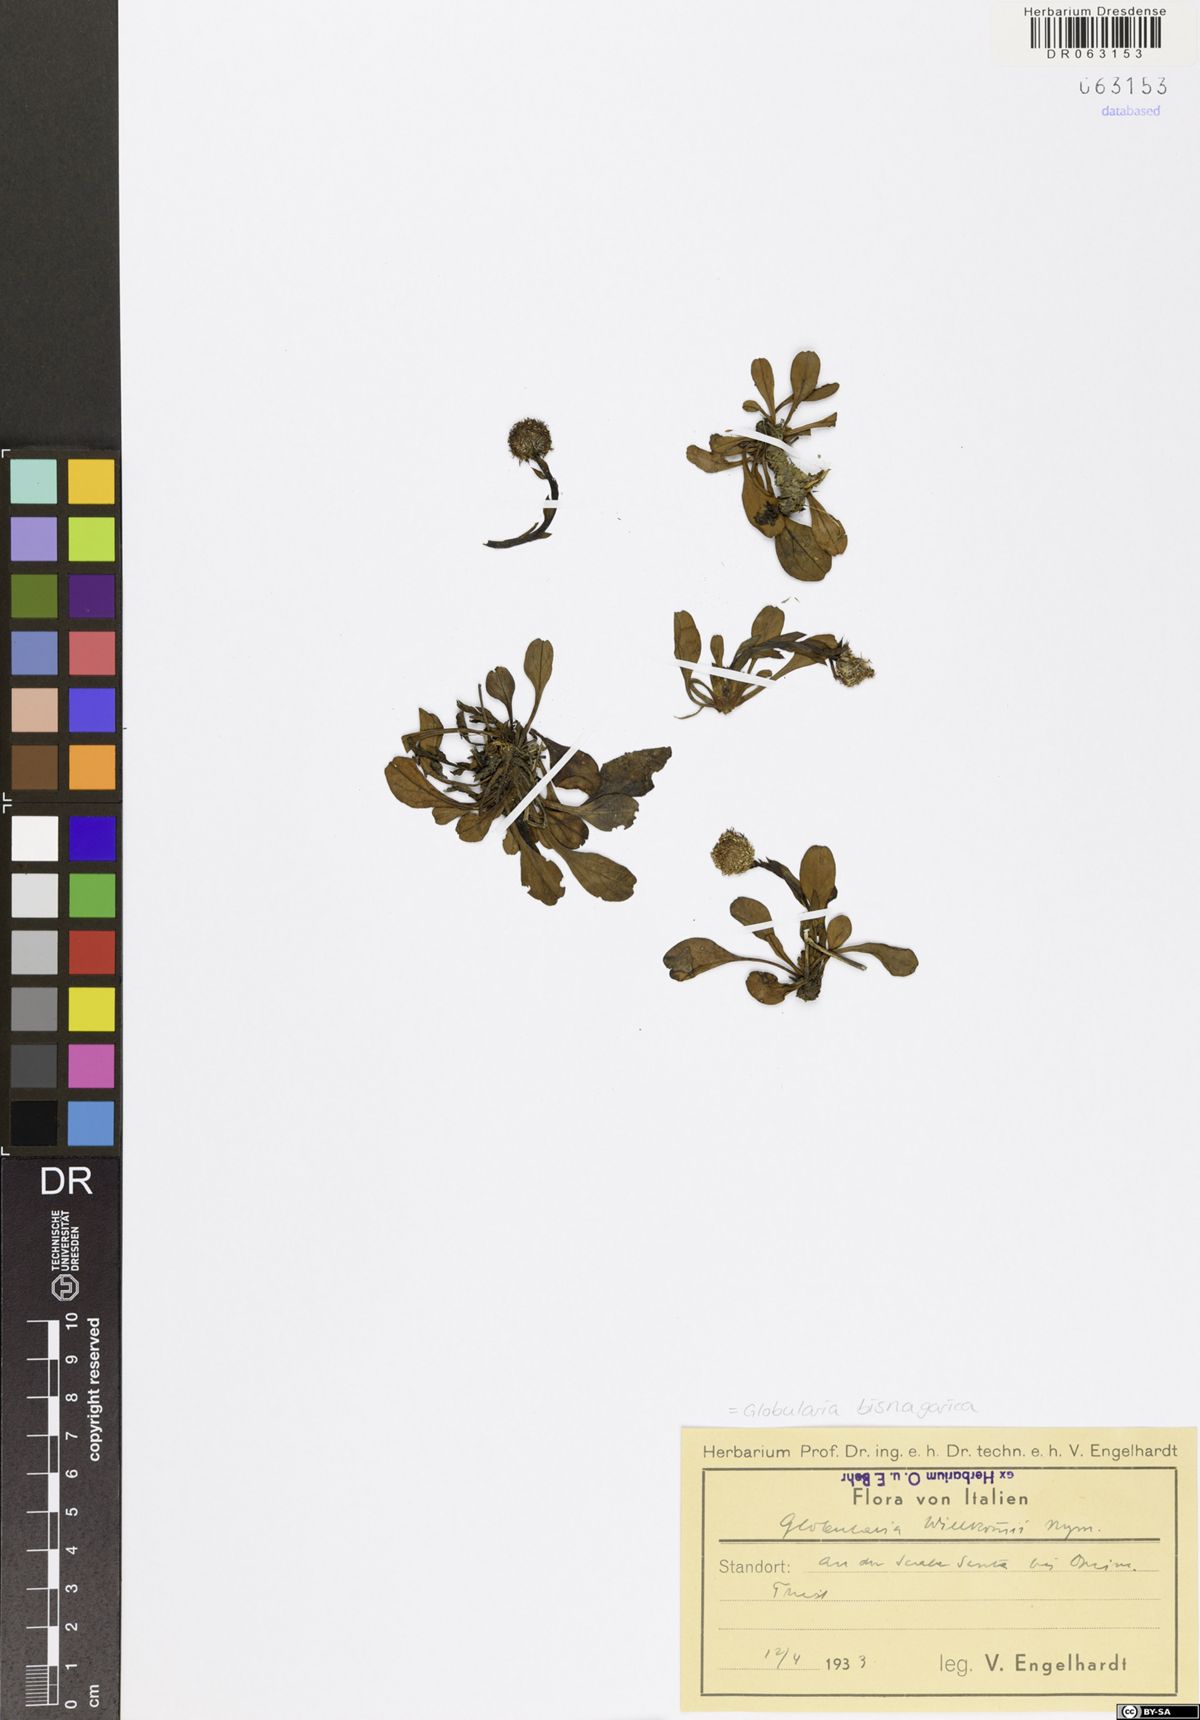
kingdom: Plantae
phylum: Tracheophyta
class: Magnoliopsida
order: Lamiales
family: Plantaginaceae
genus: Globularia
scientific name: Globularia bisnagarica
